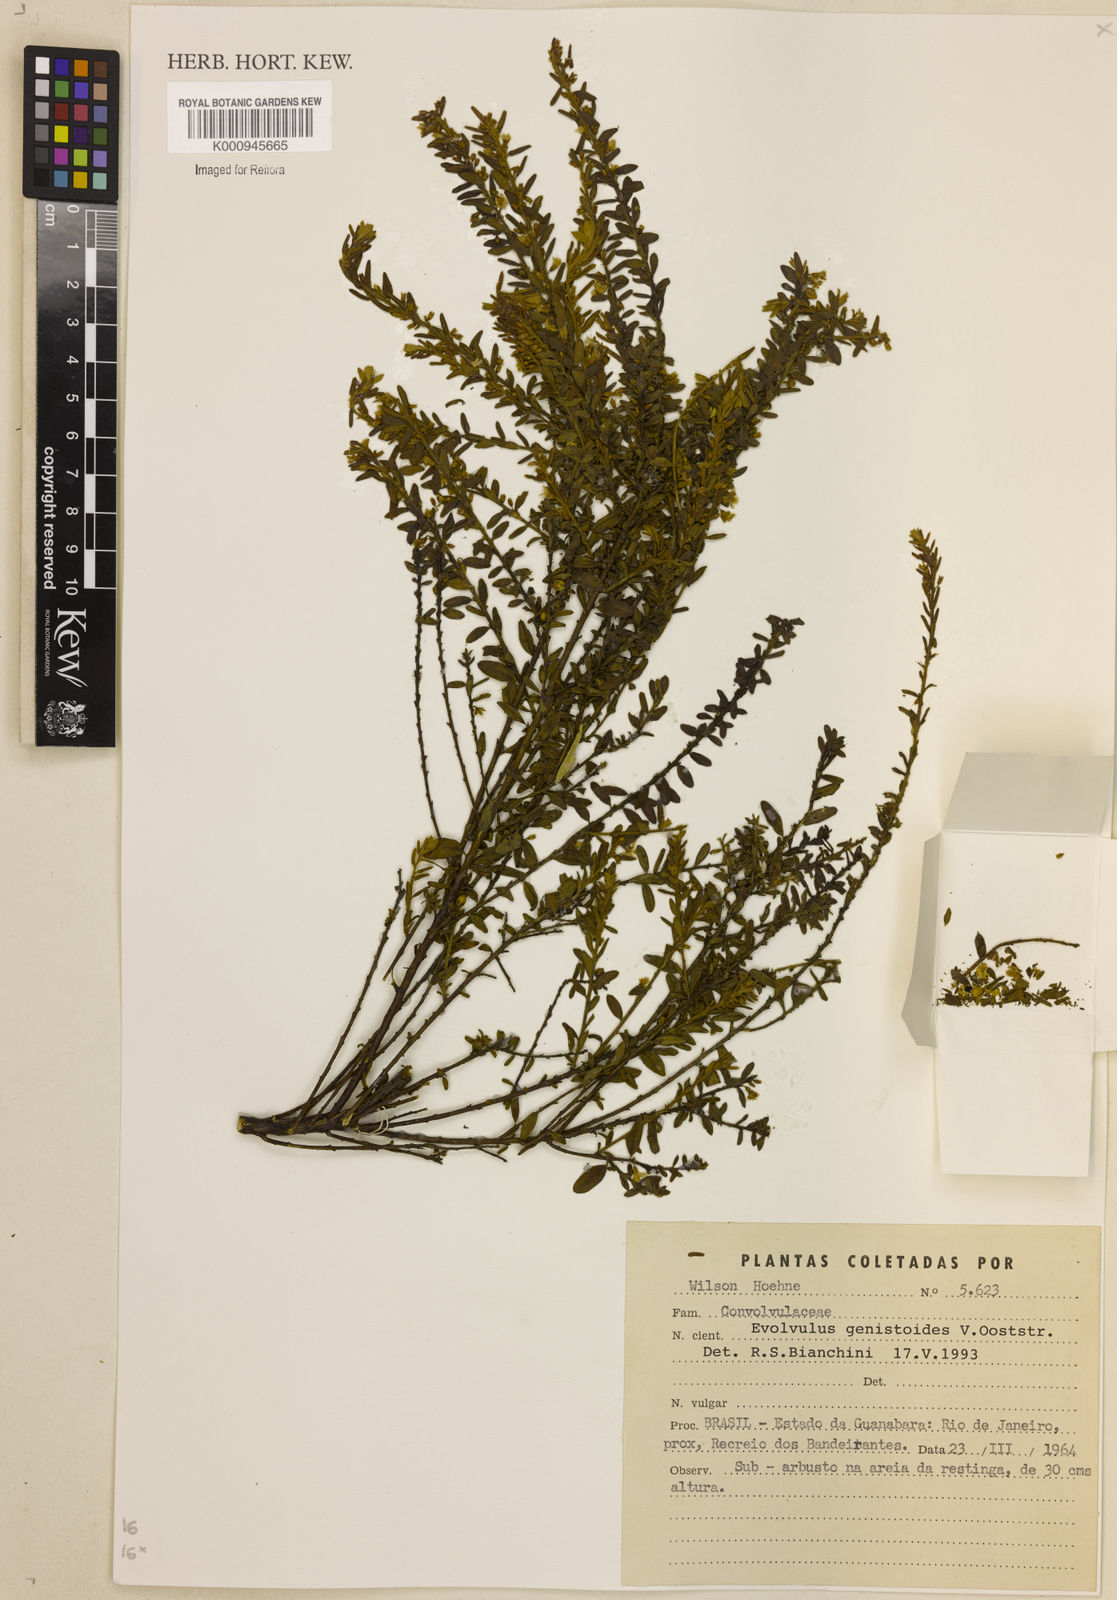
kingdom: Plantae
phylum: Tracheophyta
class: Magnoliopsida
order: Solanales
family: Convolvulaceae
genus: Evolvulus
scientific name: Evolvulus genistoides
